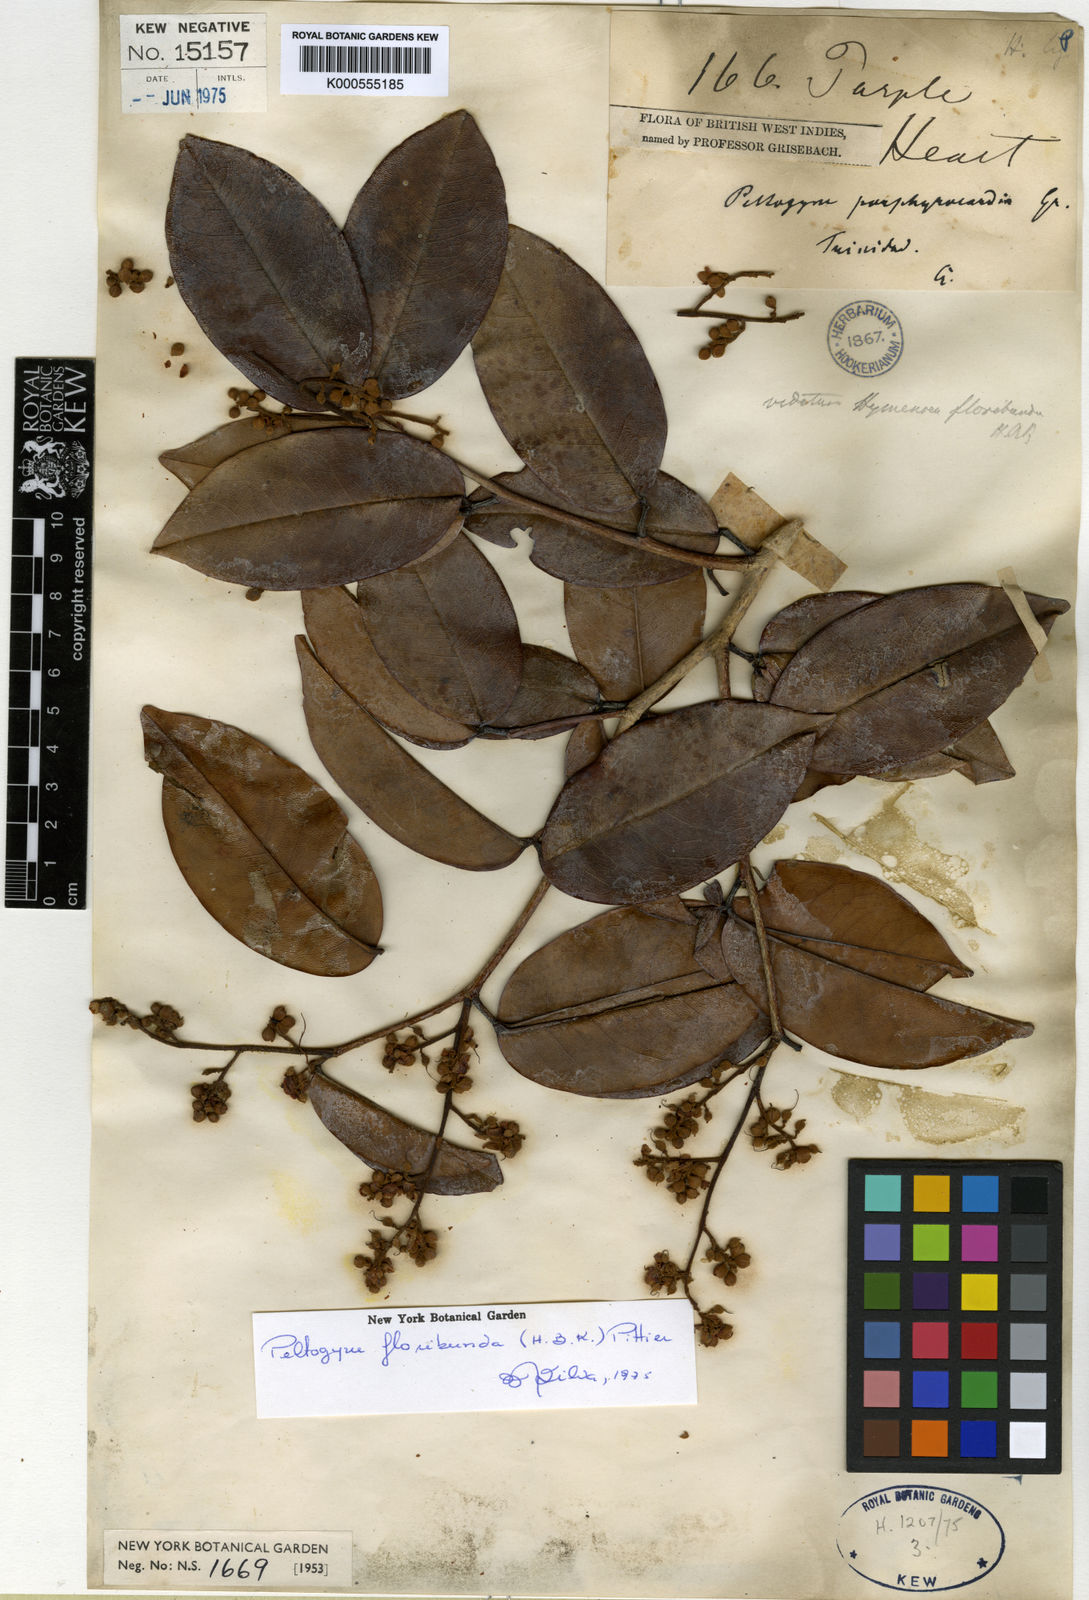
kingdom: Plantae
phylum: Tracheophyta
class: Magnoliopsida
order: Fabales
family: Fabaceae
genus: Peltogyne
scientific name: Peltogyne floribunda
